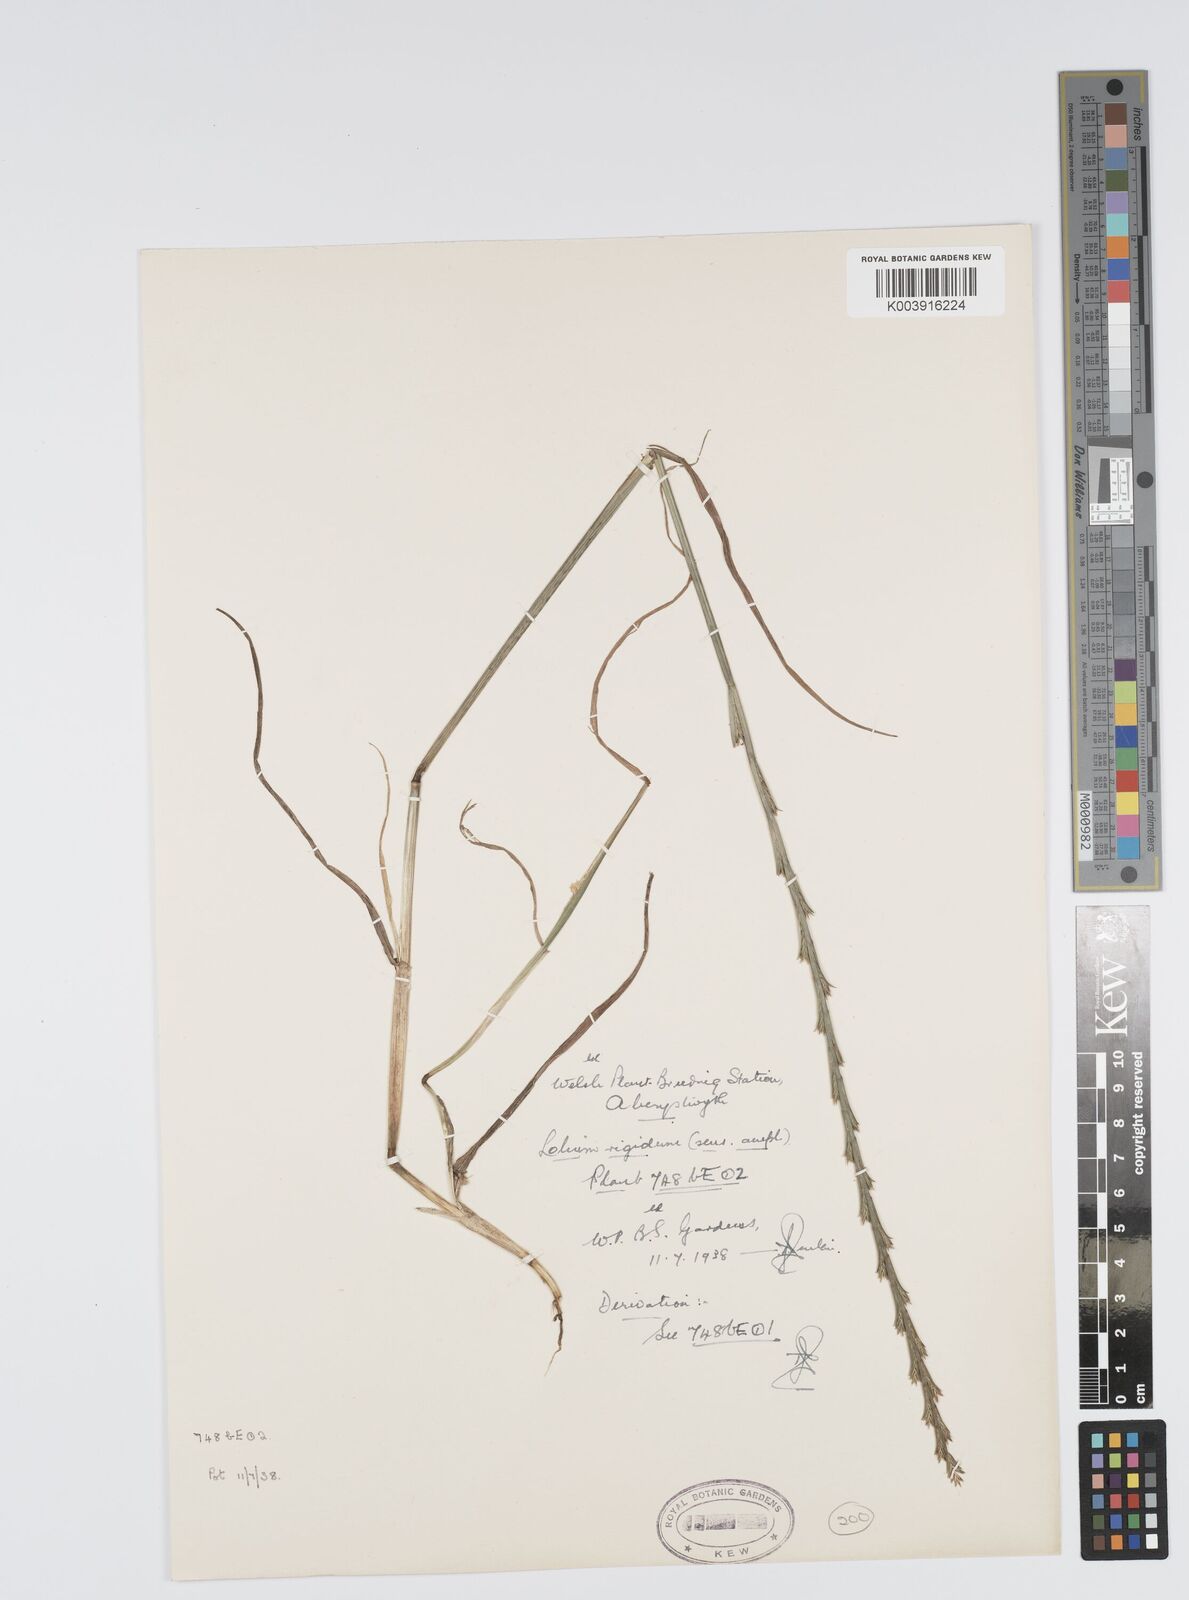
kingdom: Plantae
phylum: Tracheophyta
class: Liliopsida
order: Poales
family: Poaceae
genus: Lolium
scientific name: Lolium rigidum
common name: Wimmera ryegrass
